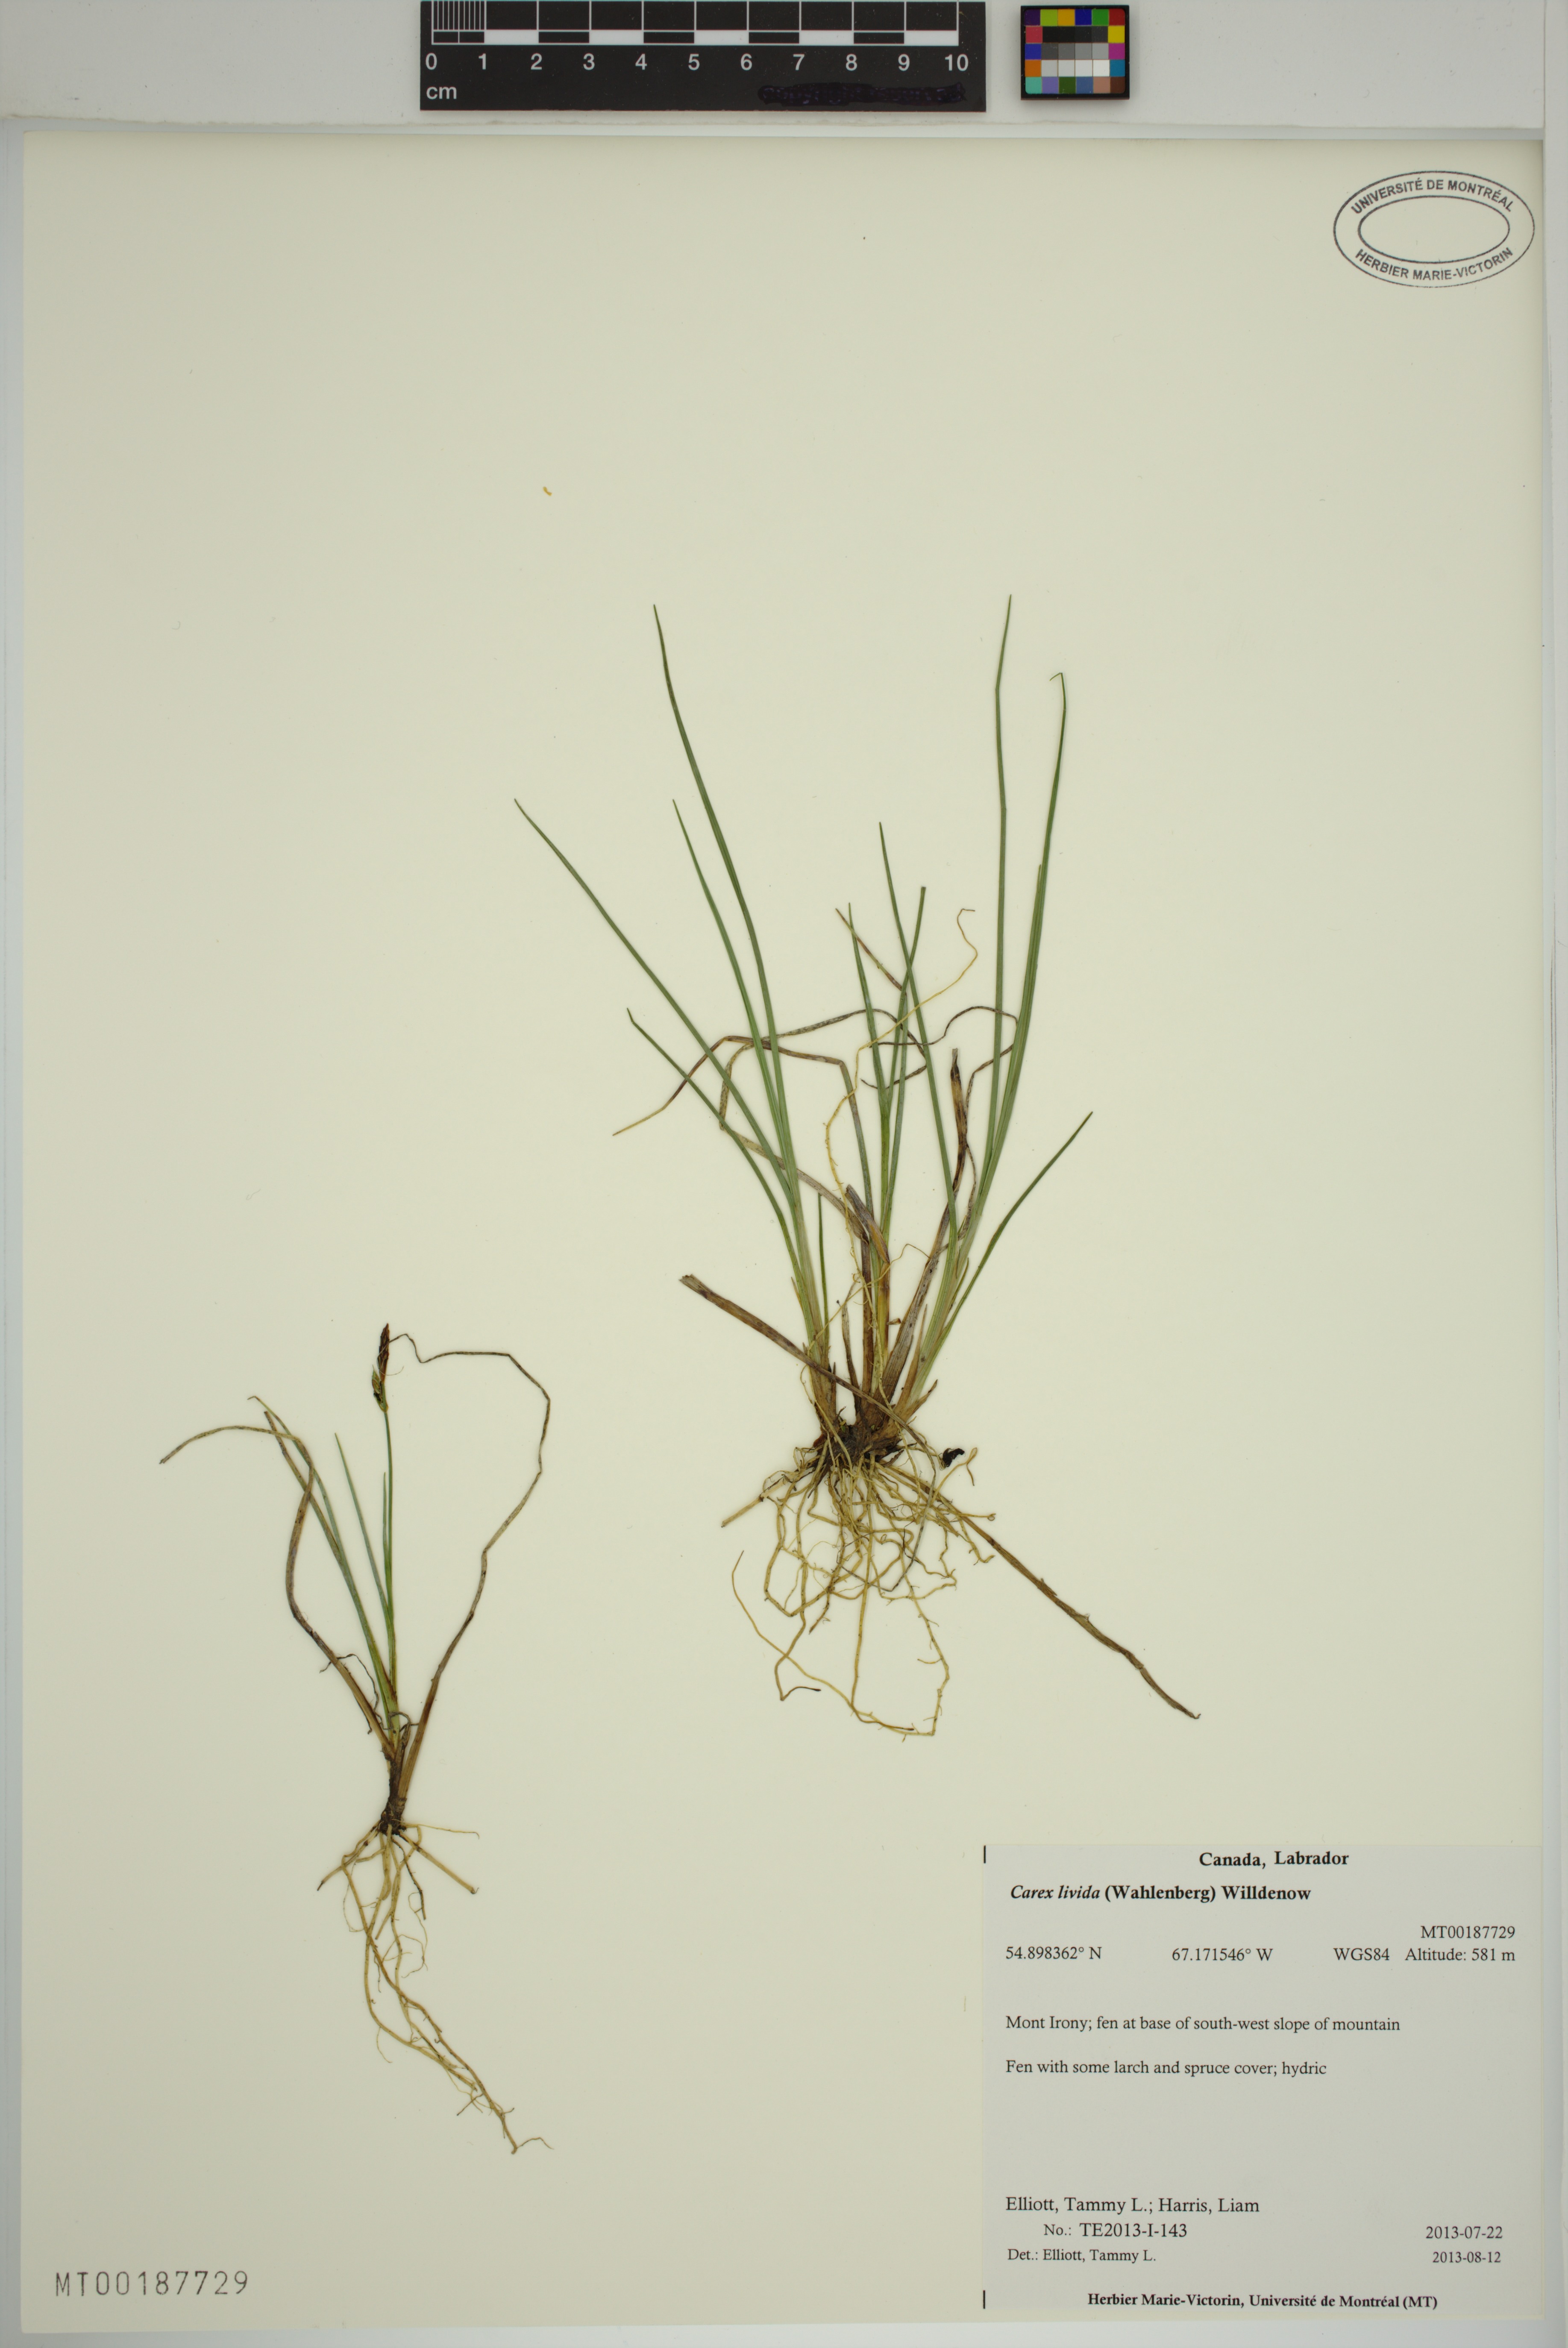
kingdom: Plantae
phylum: Tracheophyta
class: Liliopsida
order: Poales
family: Cyperaceae
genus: Carex
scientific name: Carex livida
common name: Livid sedge
